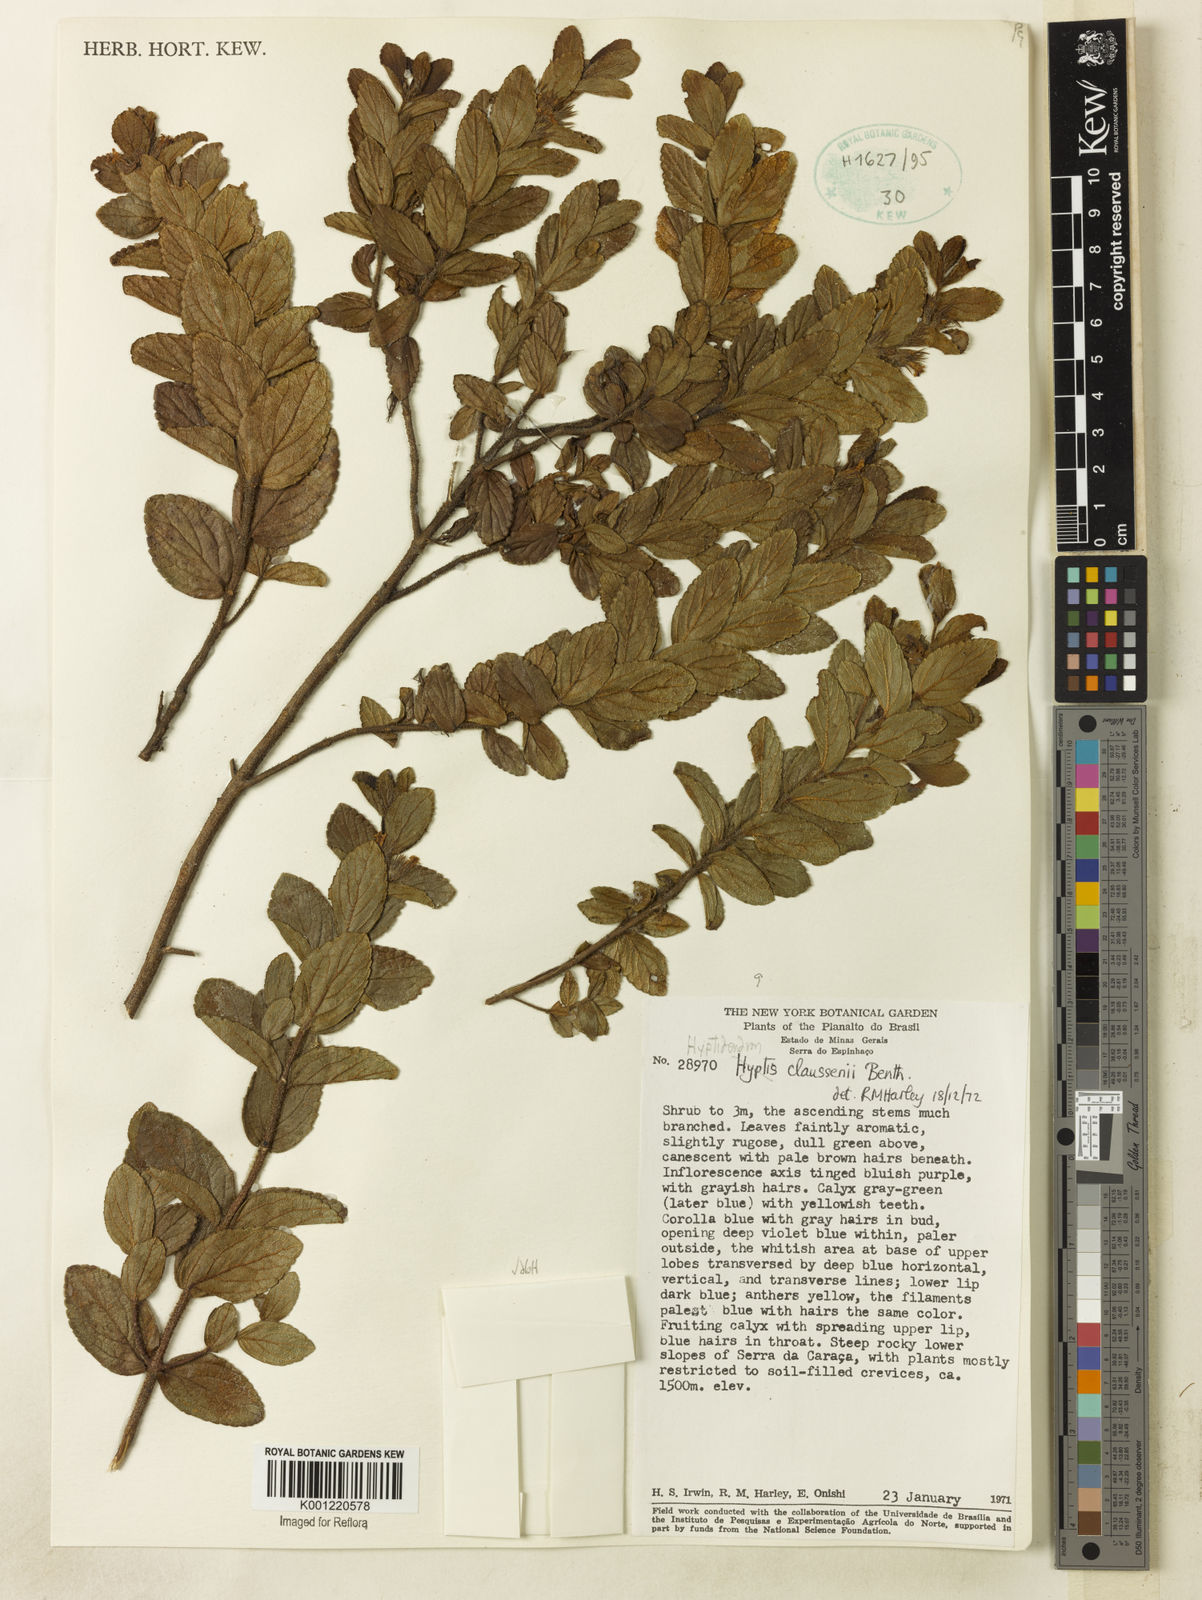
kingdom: Plantae
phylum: Tracheophyta
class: Magnoliopsida
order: Lamiales
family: Lamiaceae
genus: Hyptidendron
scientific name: Hyptidendron claussenii
